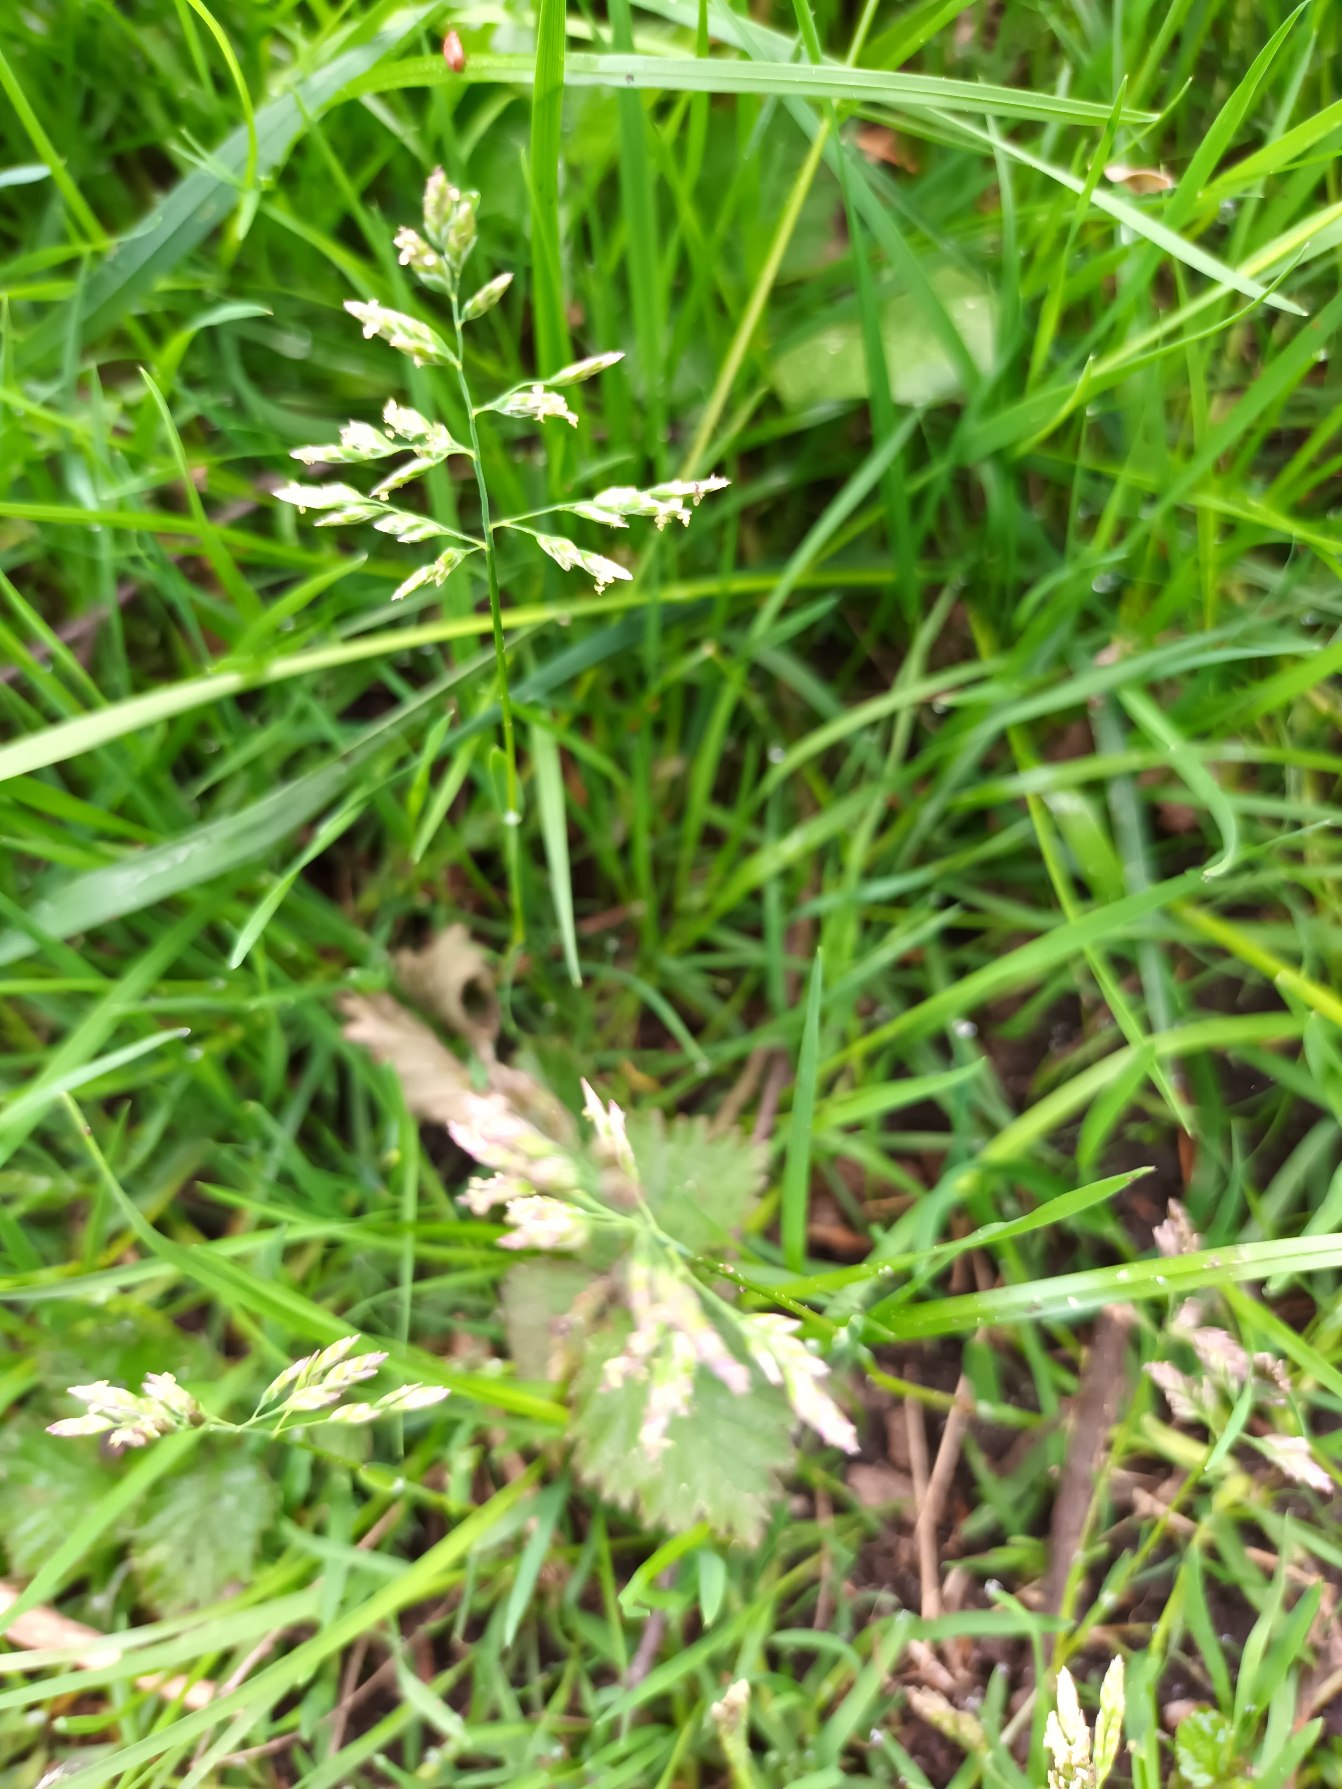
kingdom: Plantae
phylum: Tracheophyta
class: Liliopsida
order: Poales
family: Poaceae
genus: Poa
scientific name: Poa annua
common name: Enårig rapgræs
